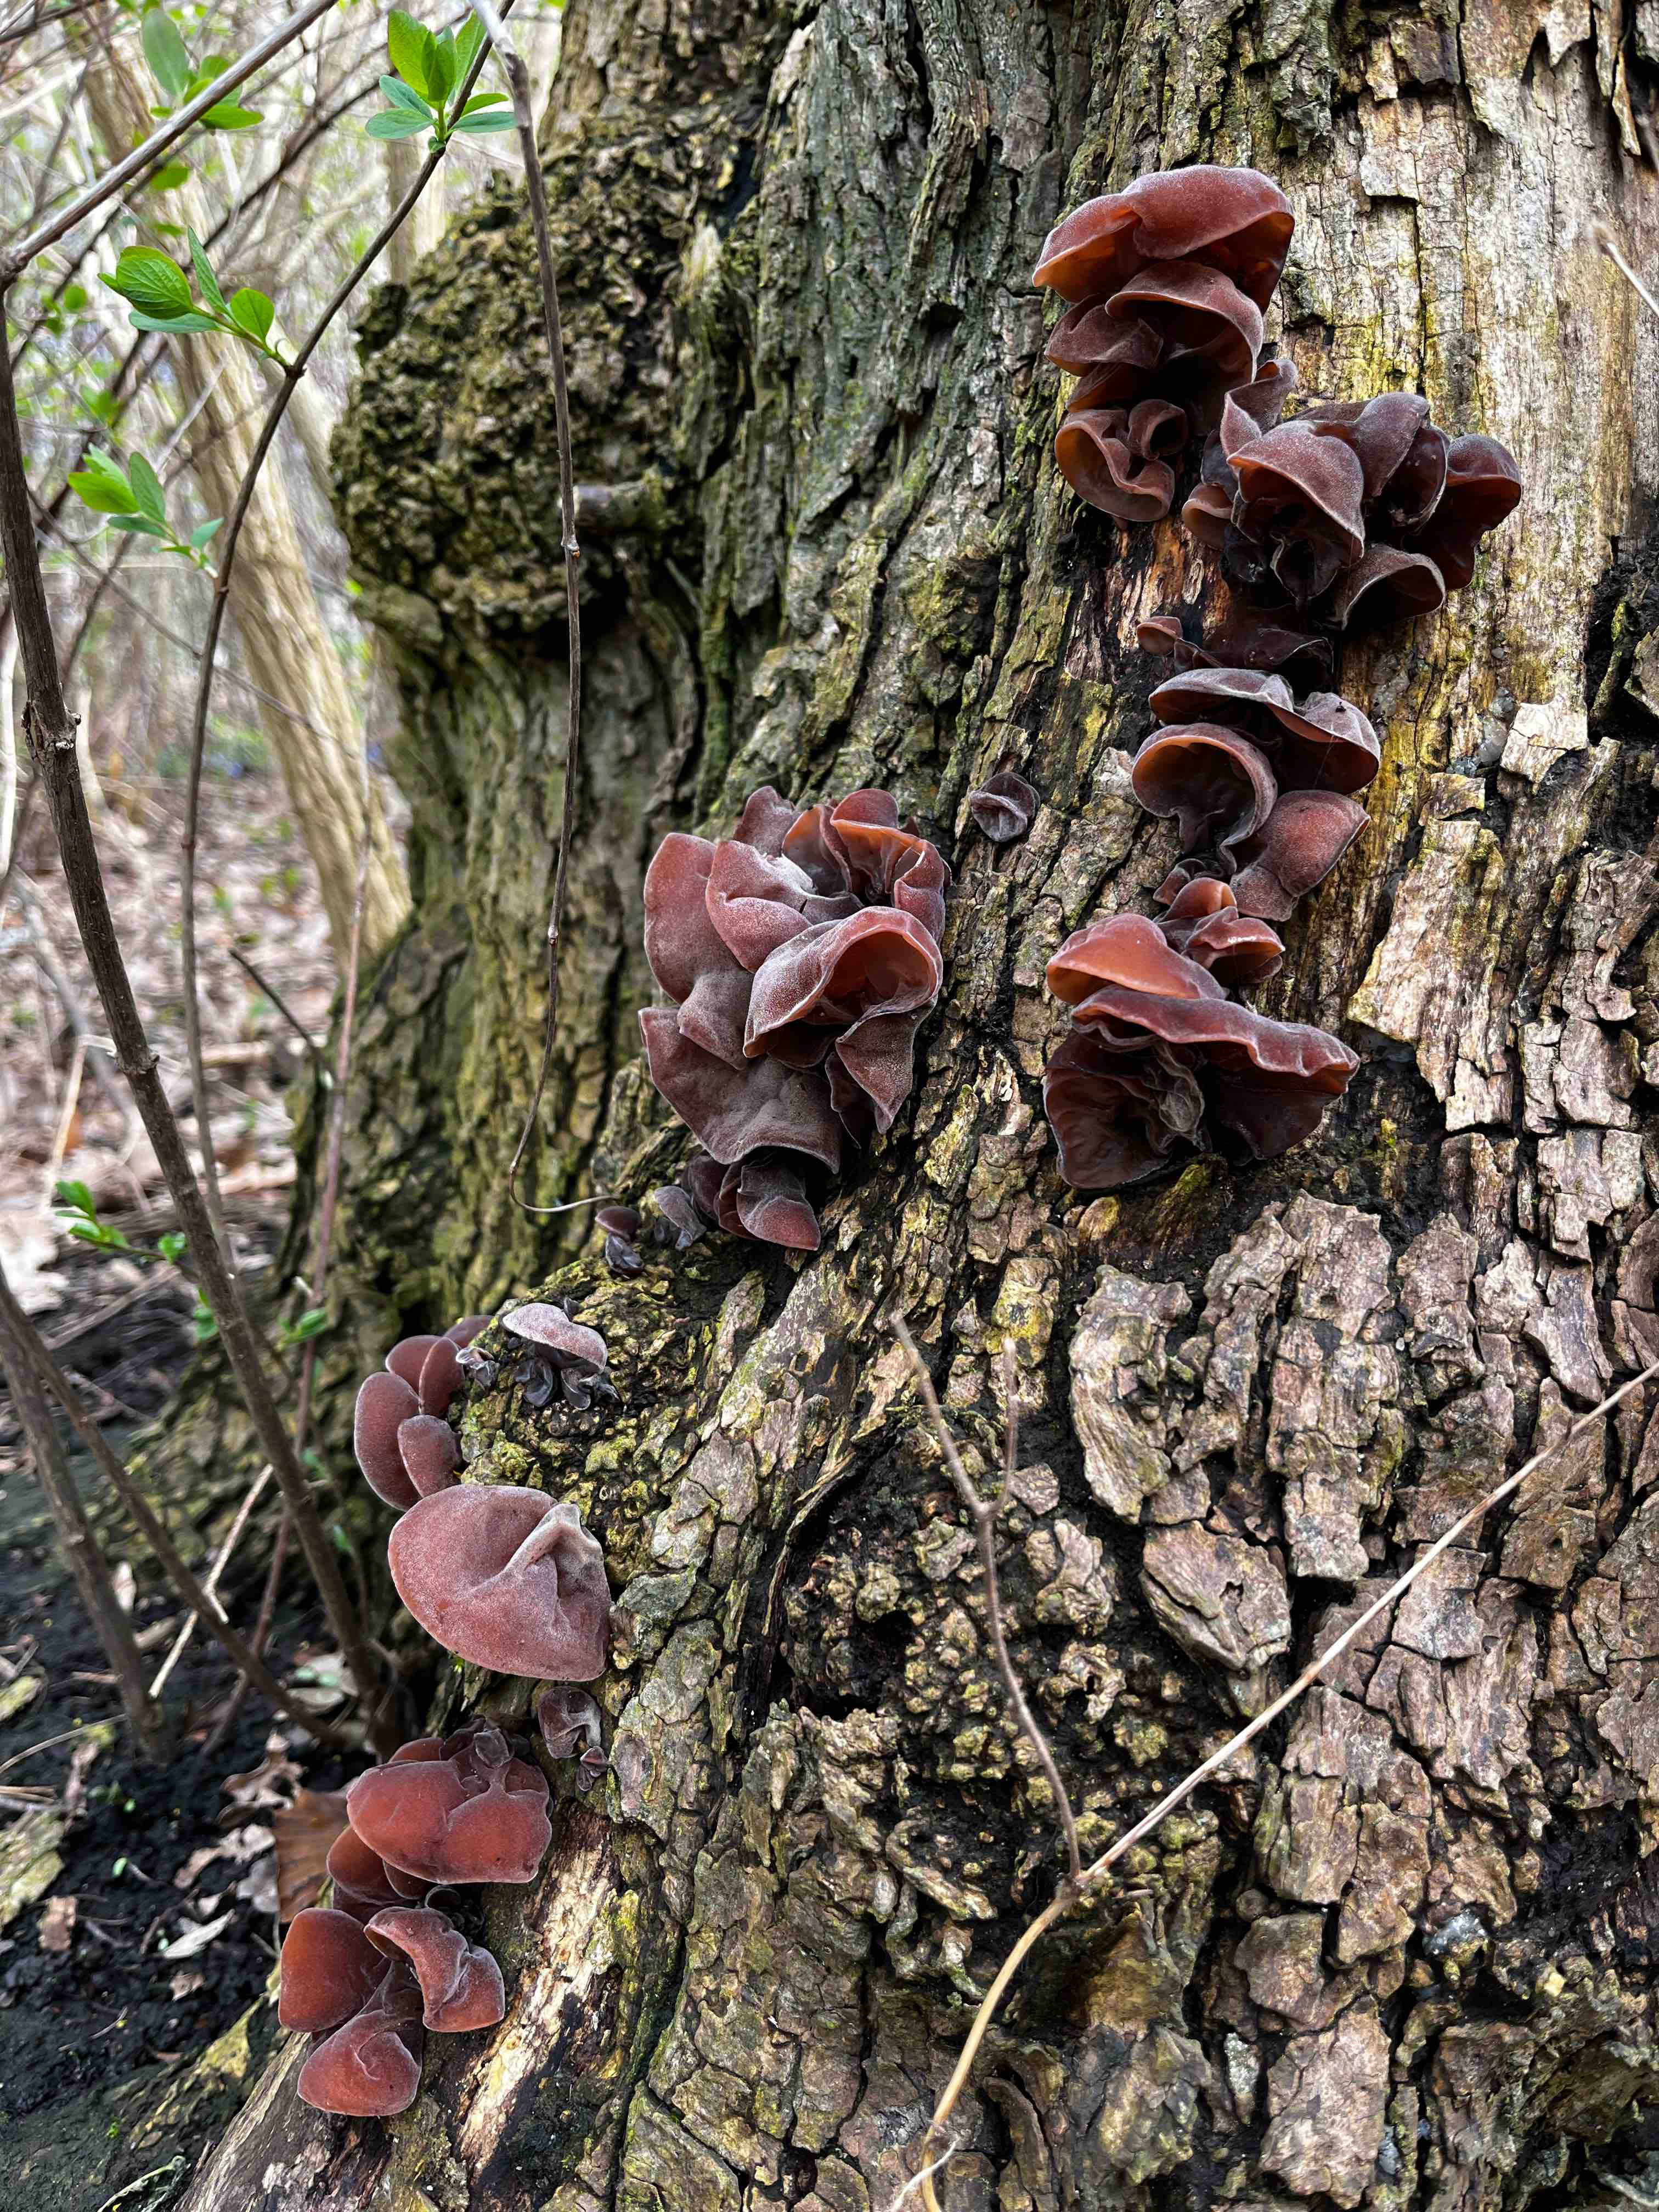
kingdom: Fungi
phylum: Basidiomycota
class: Agaricomycetes
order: Auriculariales
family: Auriculariaceae
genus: Auricularia
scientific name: Auricularia auricula-judae
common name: almindelig judasøre
